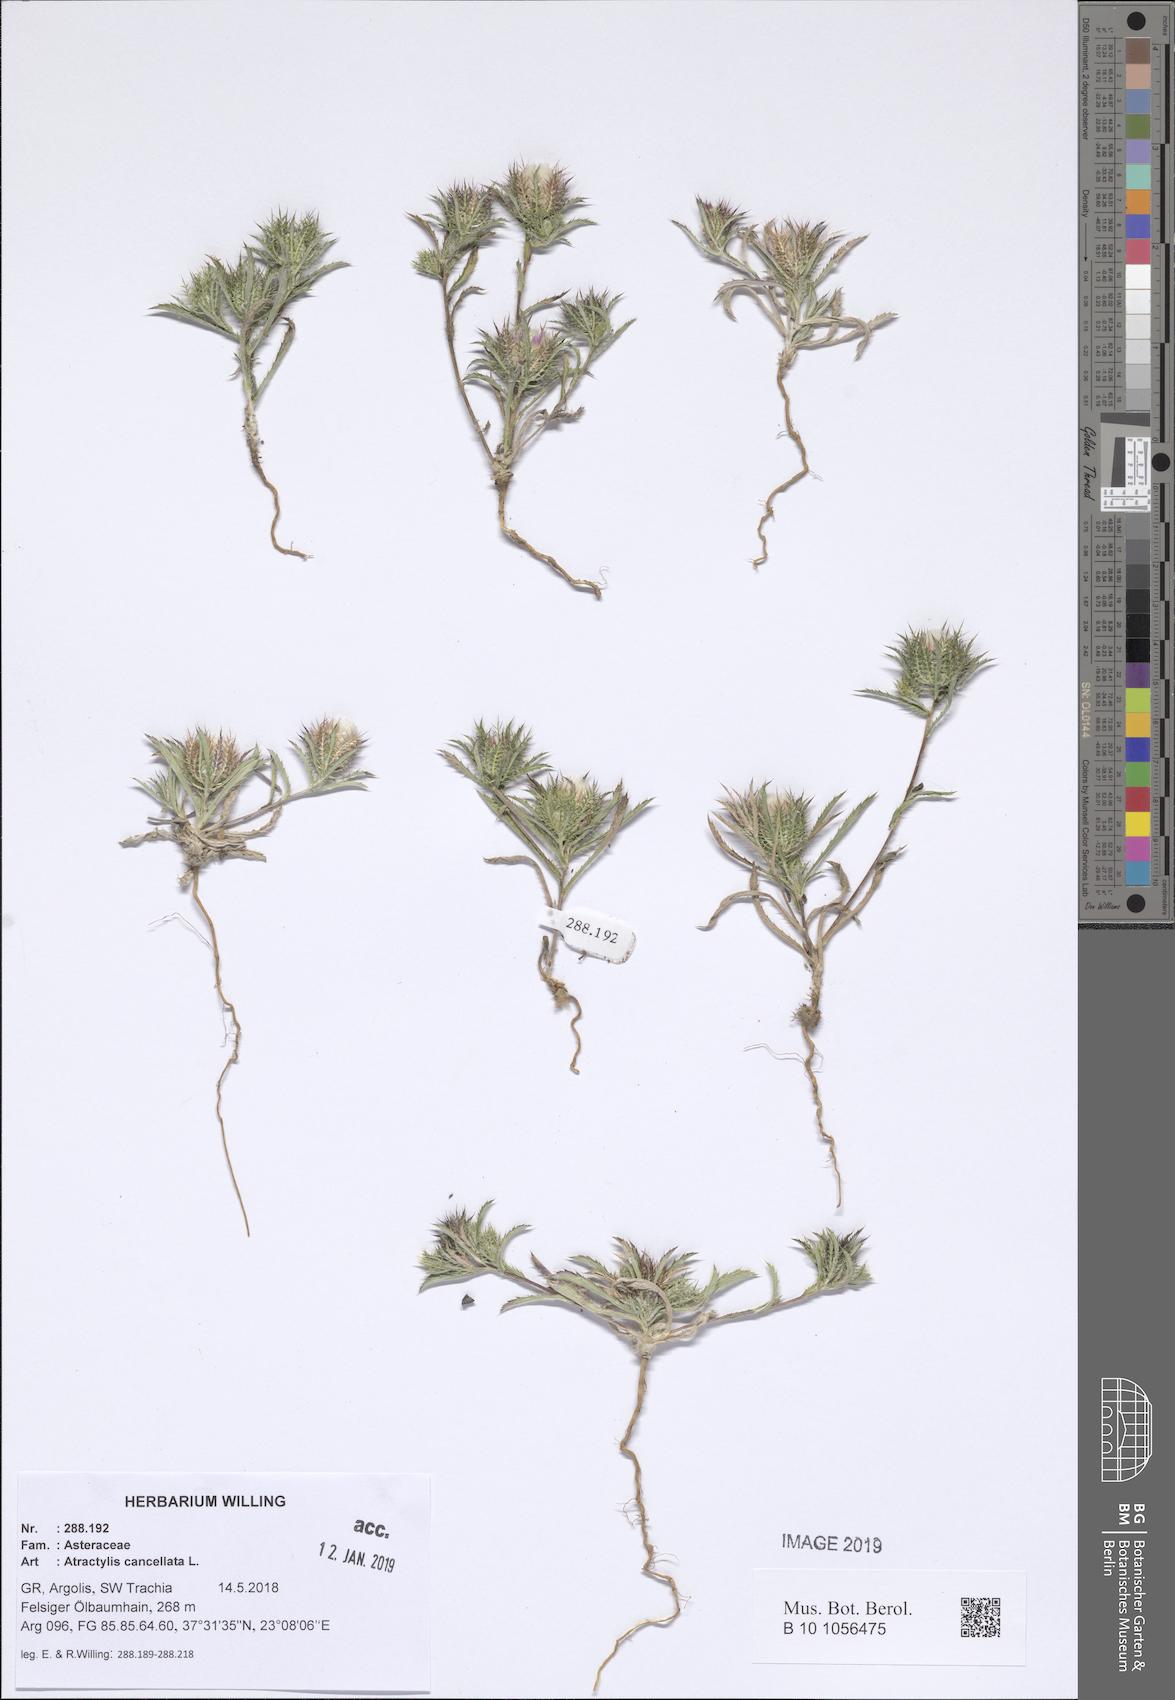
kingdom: Plantae
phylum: Tracheophyta
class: Magnoliopsida
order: Asterales
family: Asteraceae
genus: Atractylis
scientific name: Atractylis cancellata
